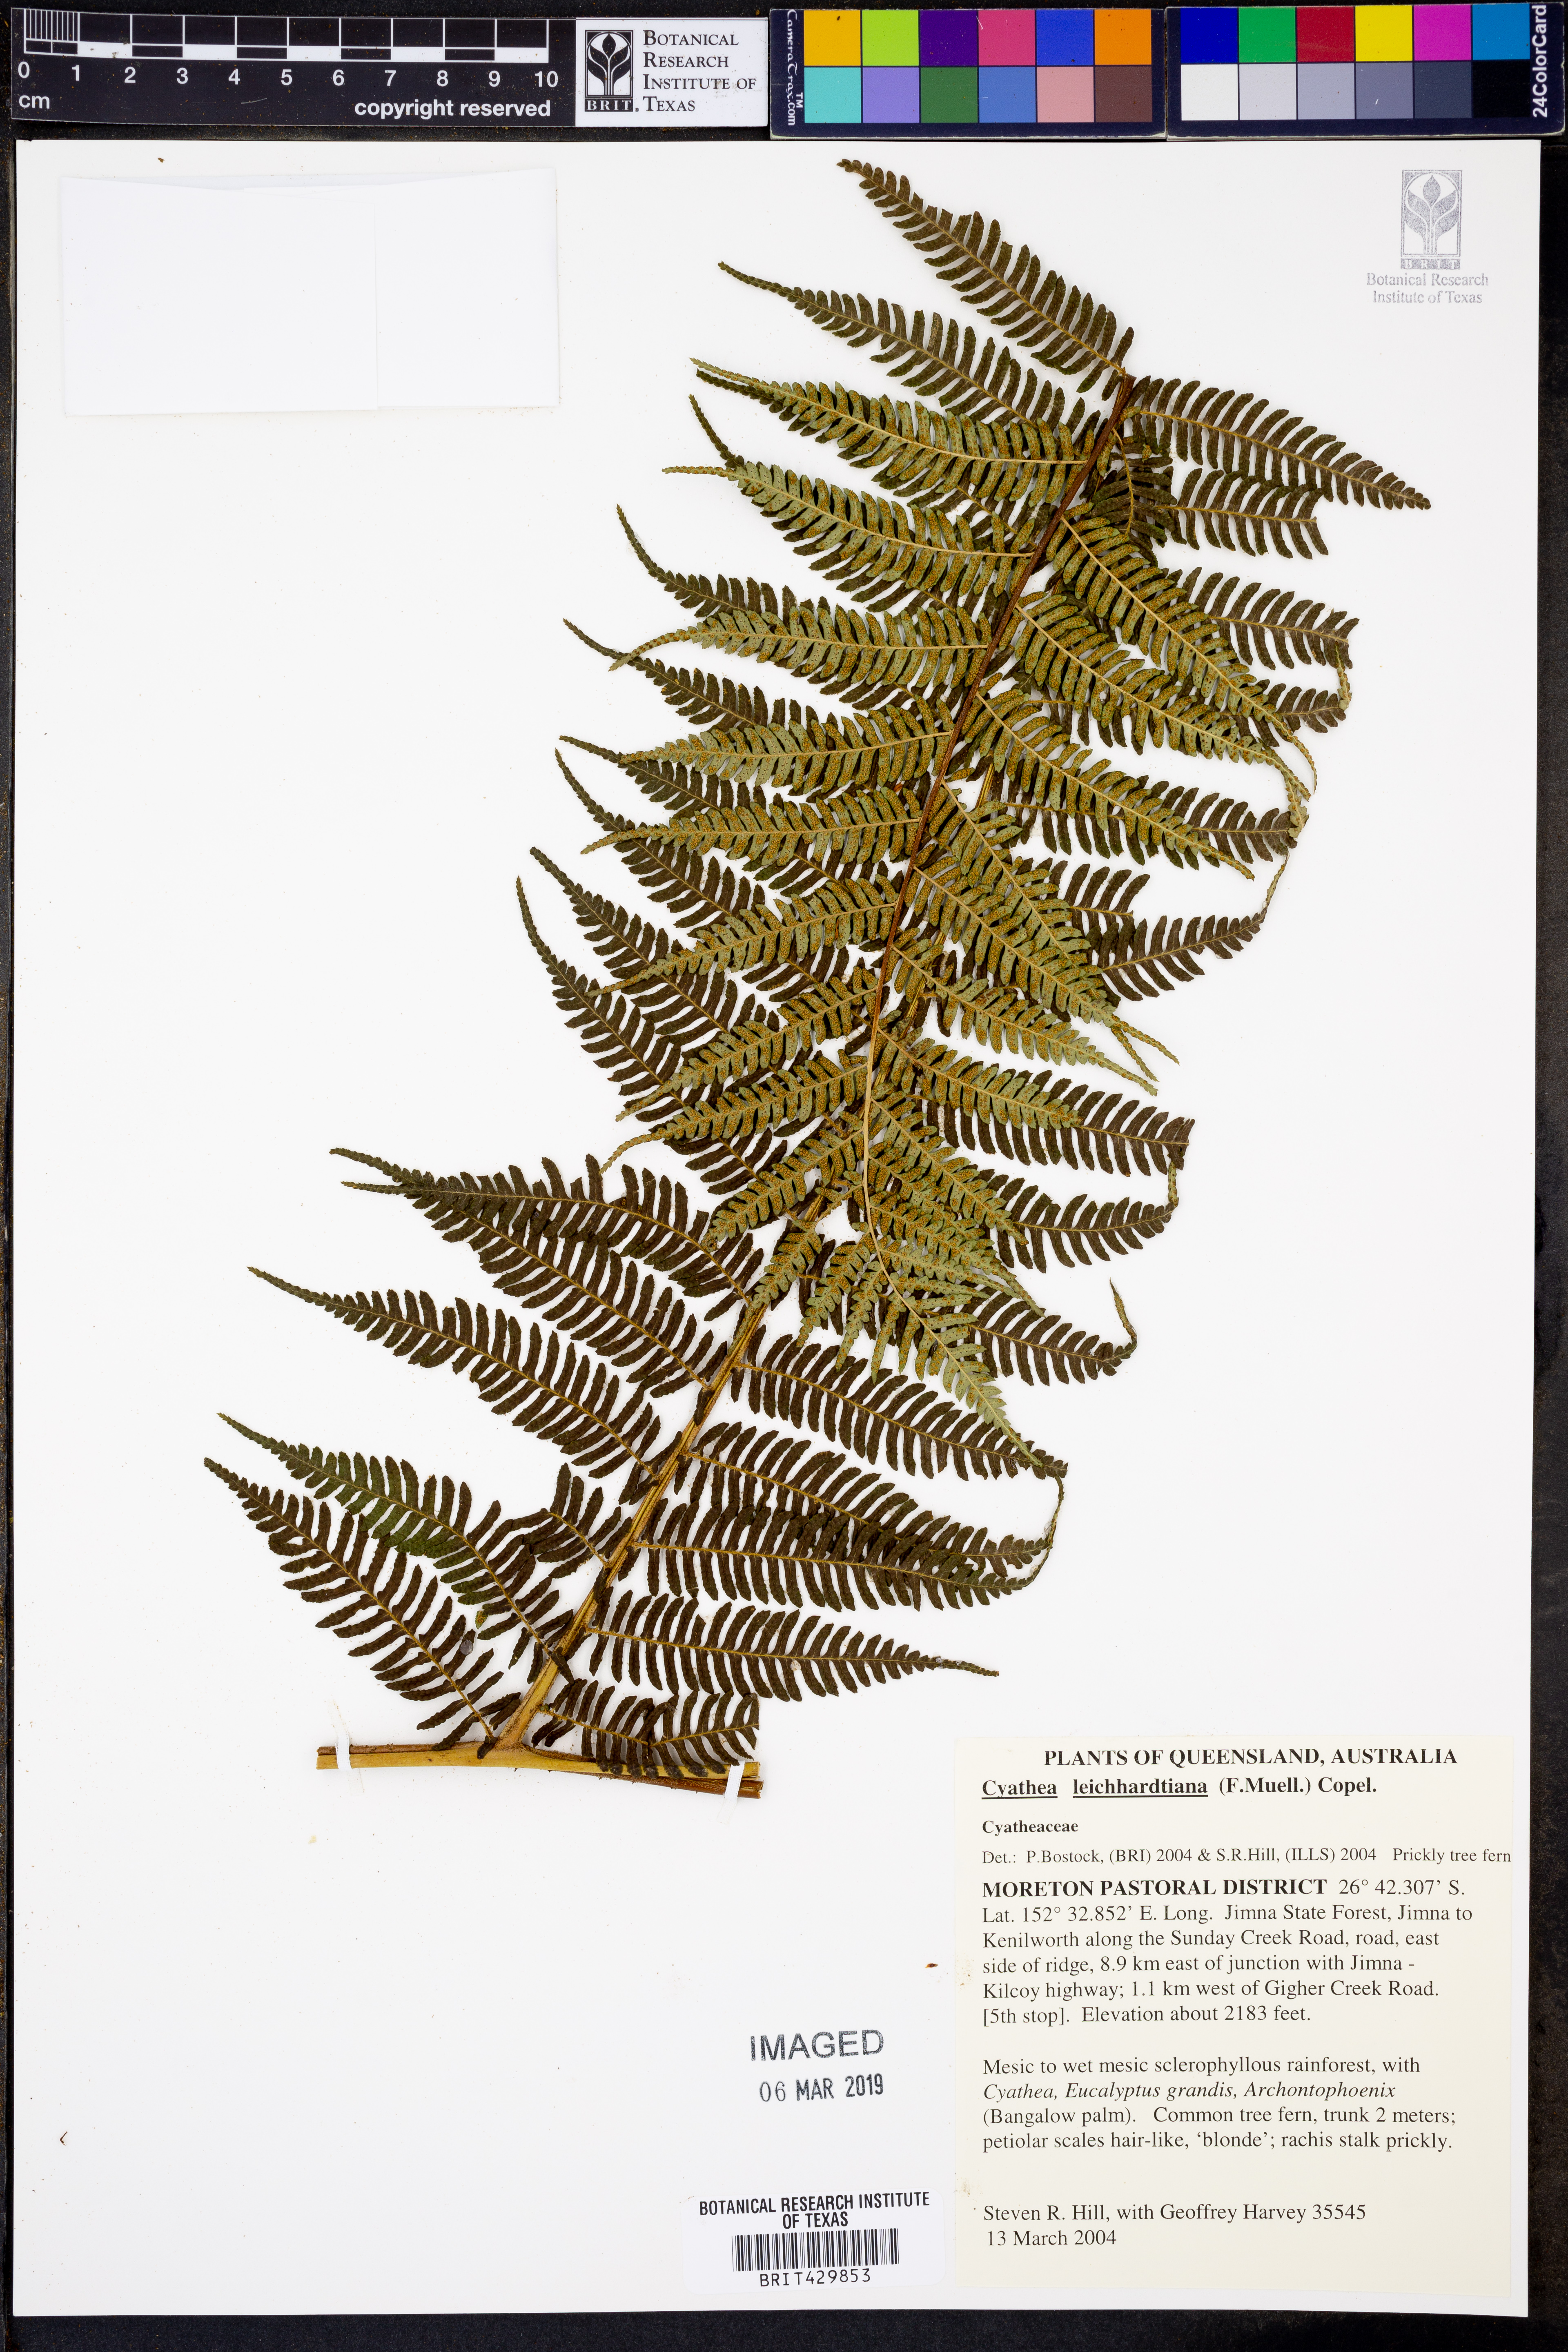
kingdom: Plantae
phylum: Tracheophyta
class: Polypodiopsida
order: Cyatheales
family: Cyatheaceae
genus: Alsophila
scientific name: Alsophila leichhardtiana
